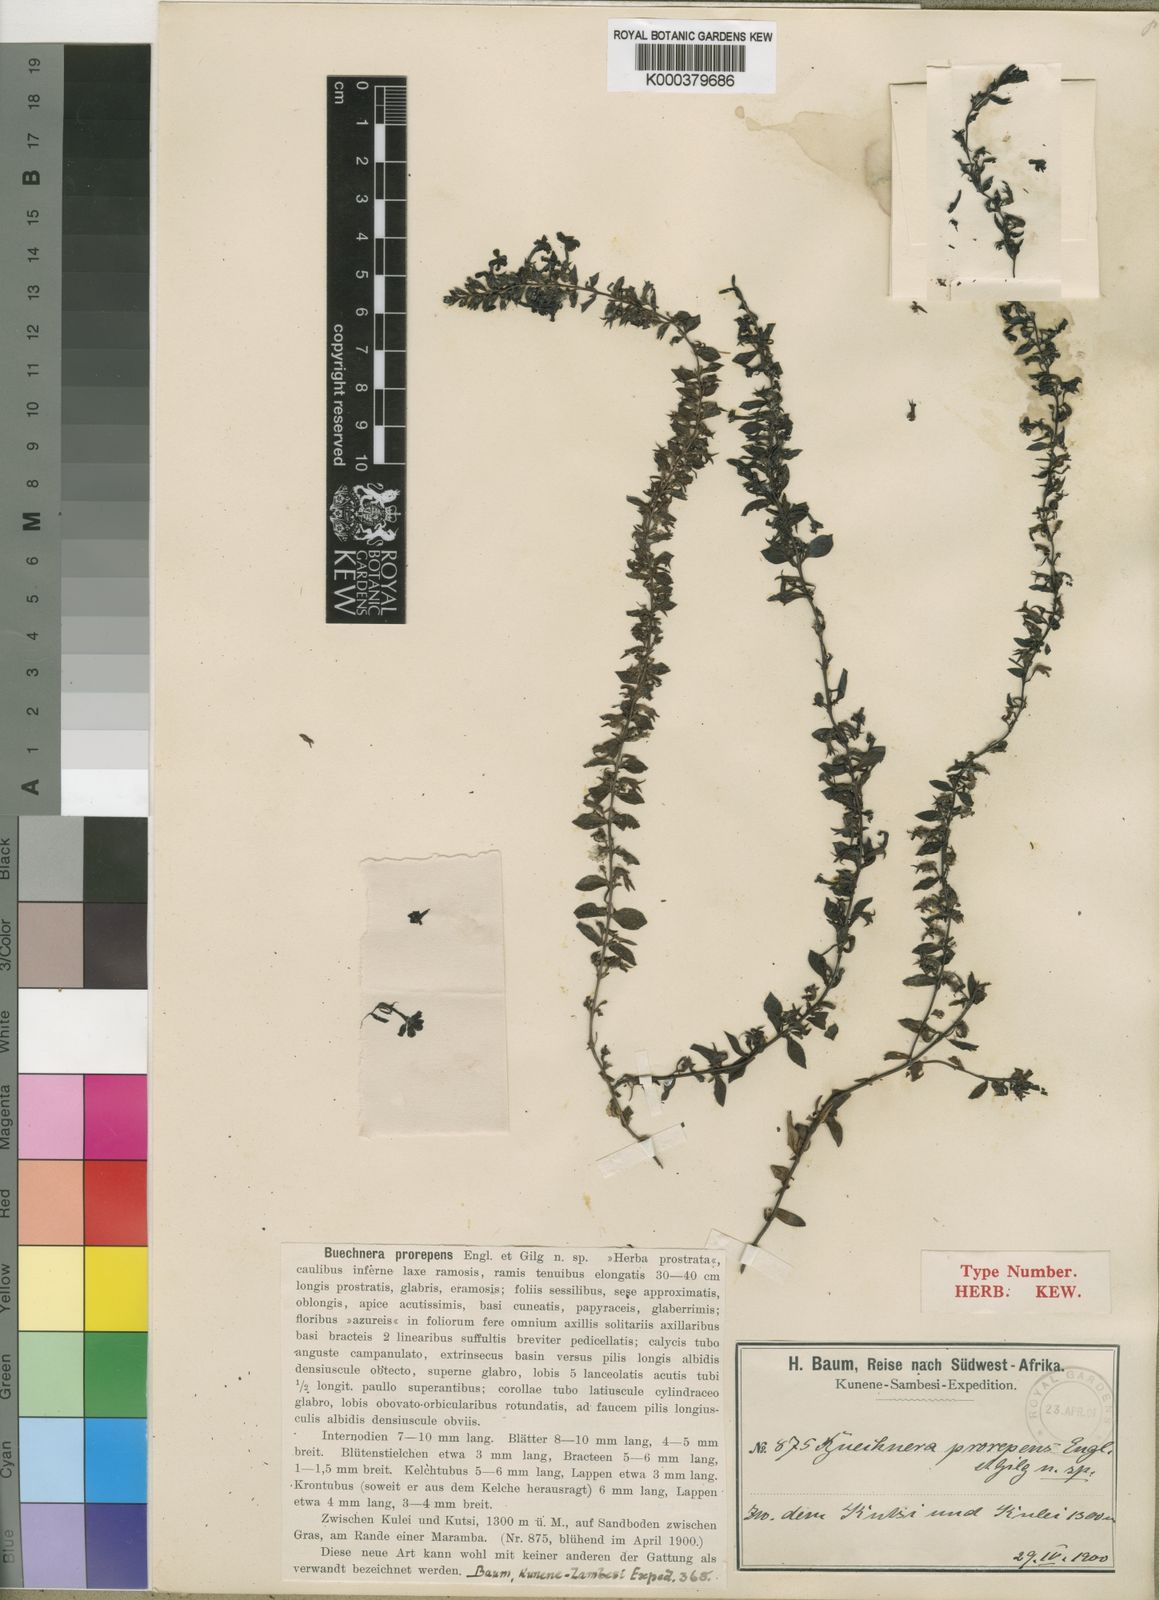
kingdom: Plantae
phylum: Tracheophyta
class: Magnoliopsida
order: Lamiales
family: Orobanchaceae
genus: Buchnera
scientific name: Buchnera prorepens
